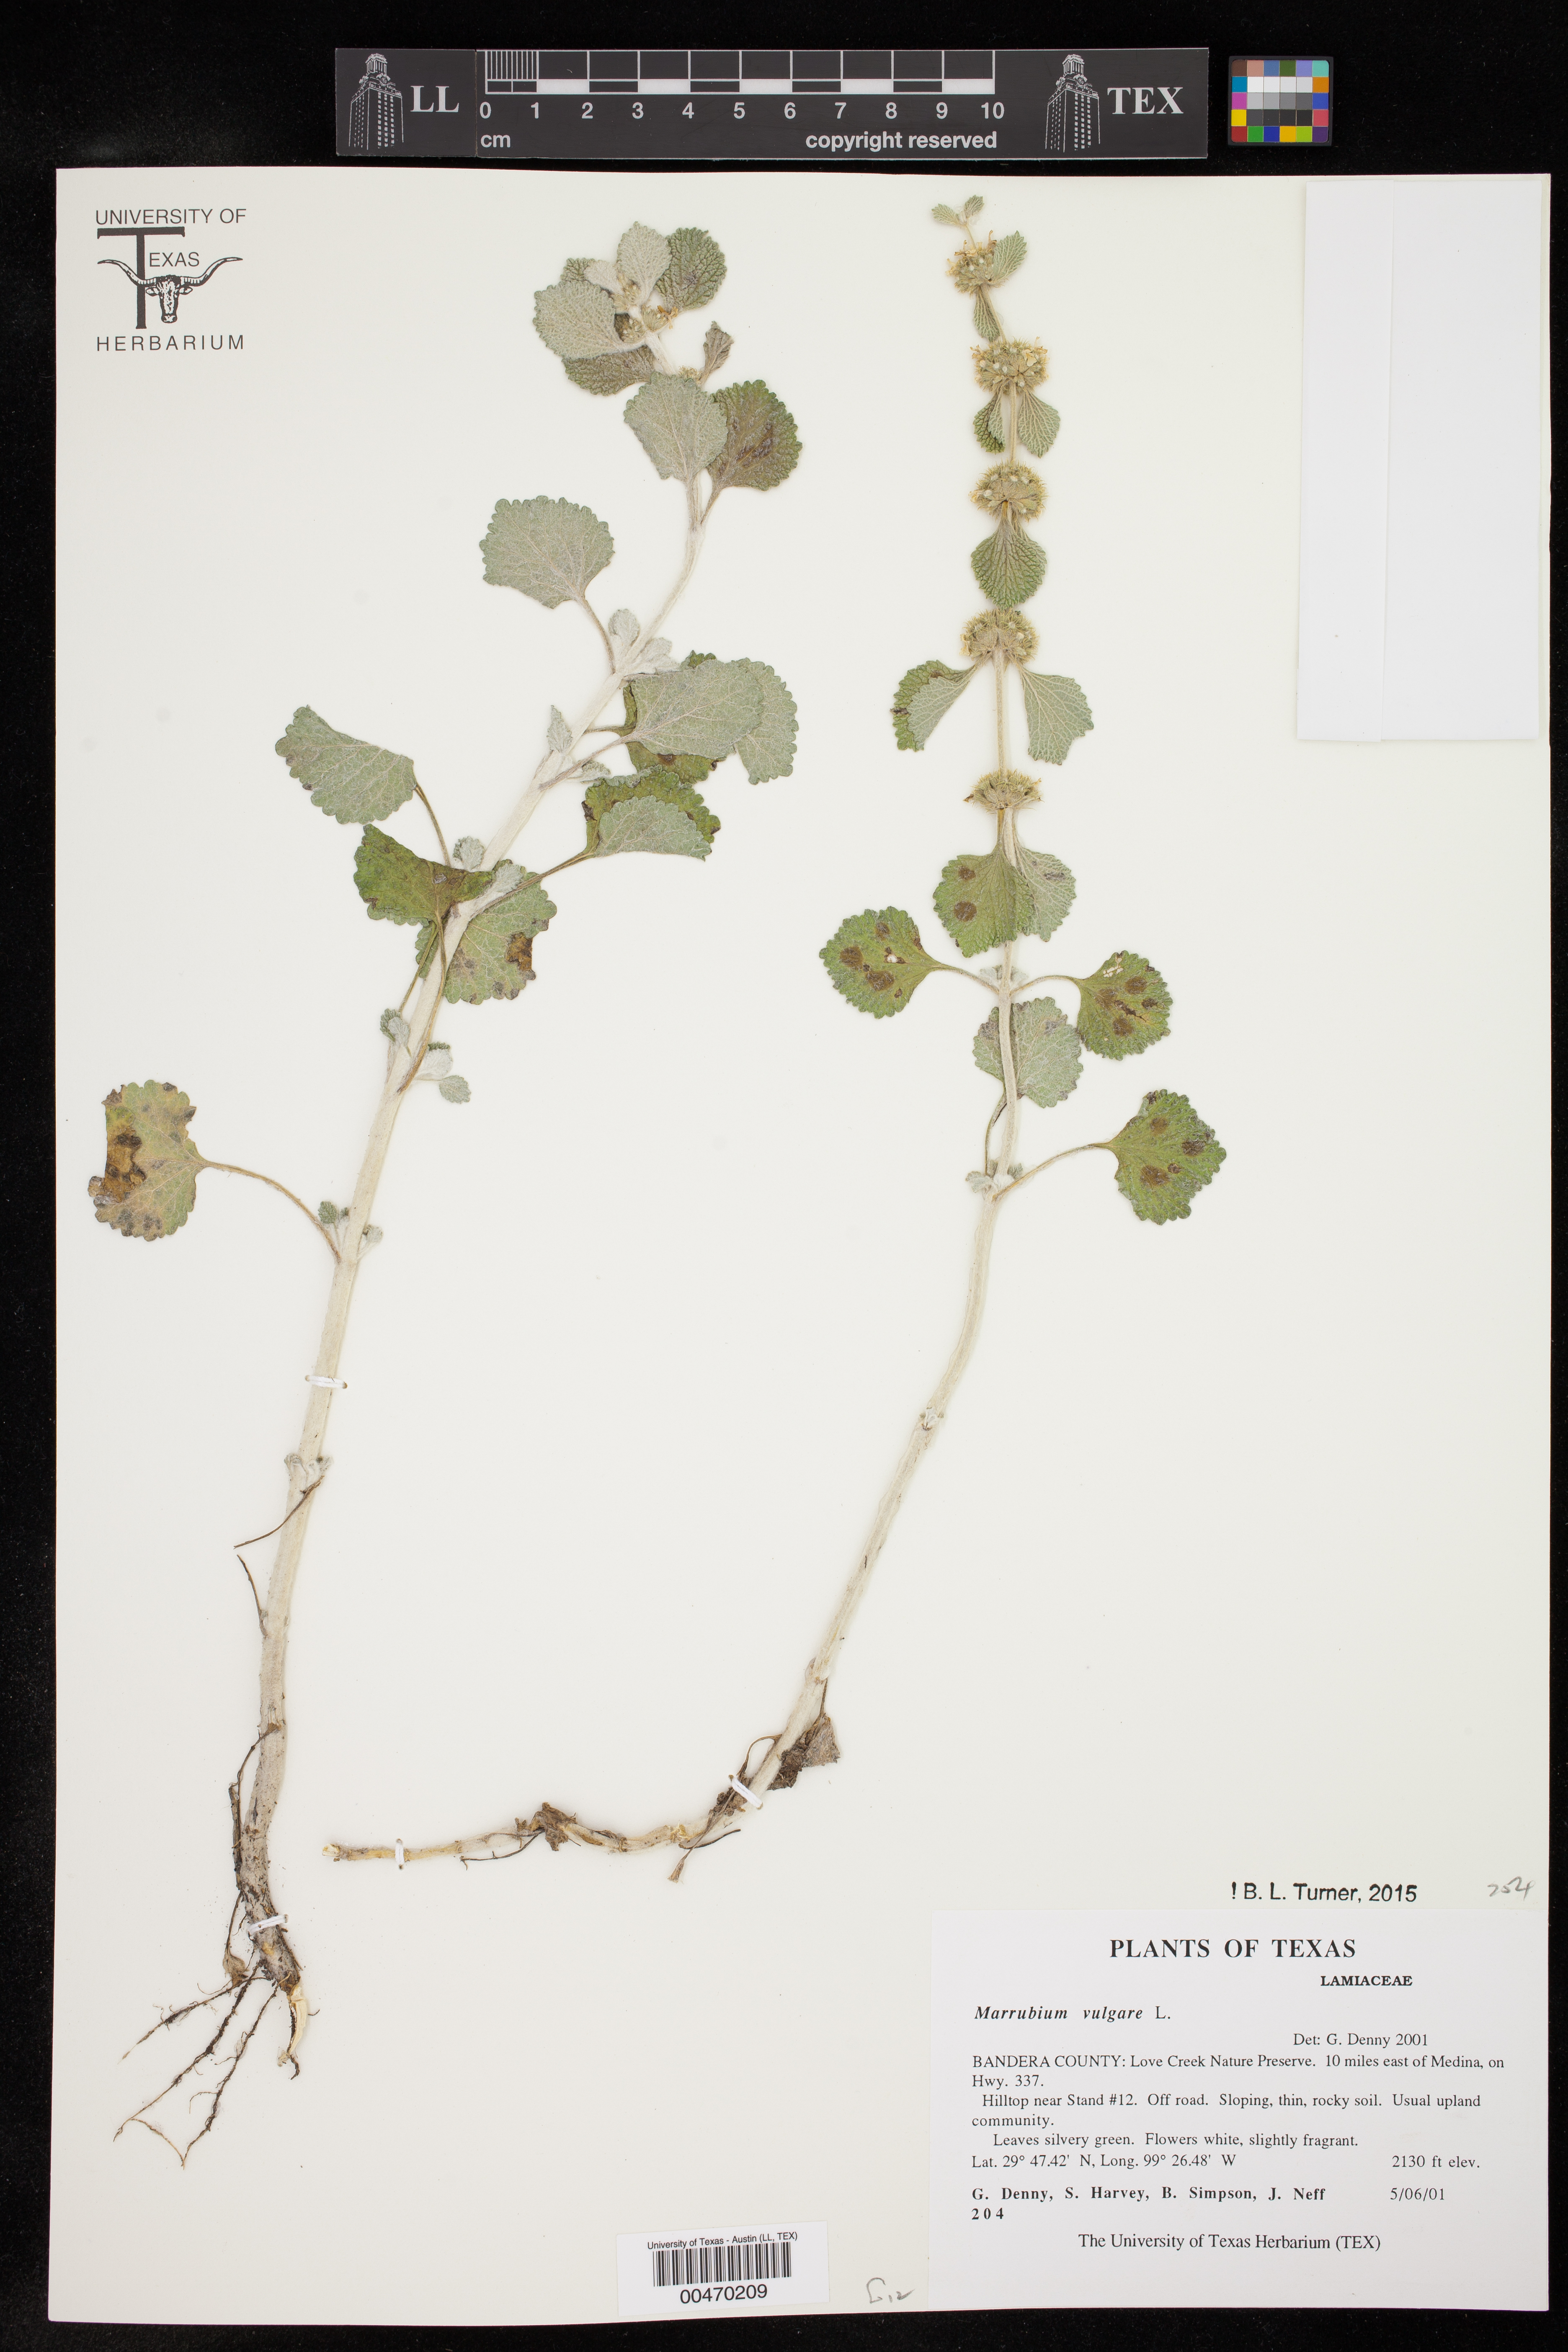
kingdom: Plantae
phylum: Tracheophyta
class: Magnoliopsida
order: Lamiales
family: Lamiaceae
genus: Marrubium
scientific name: Marrubium vulgare
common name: Horehound
